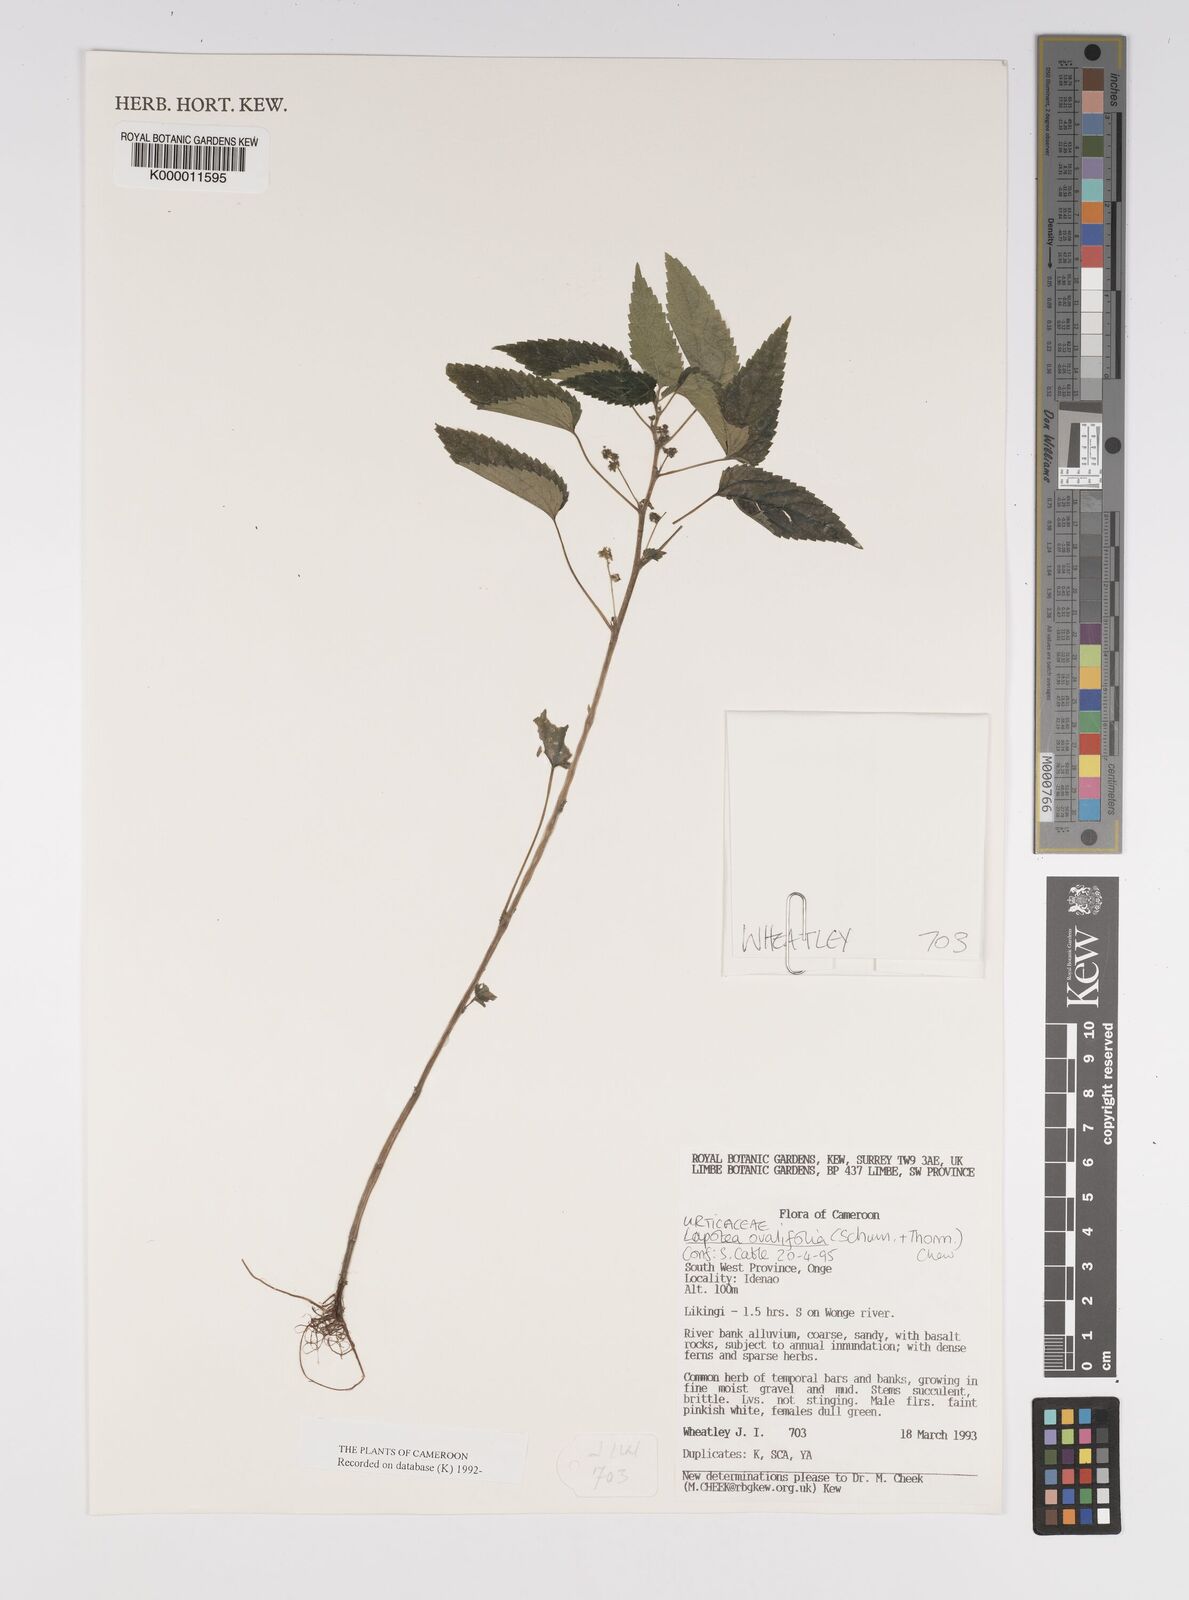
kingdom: Plantae
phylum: Tracheophyta
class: Magnoliopsida
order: Rosales
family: Urticaceae
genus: Laportea
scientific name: Laportea ovalifolia
